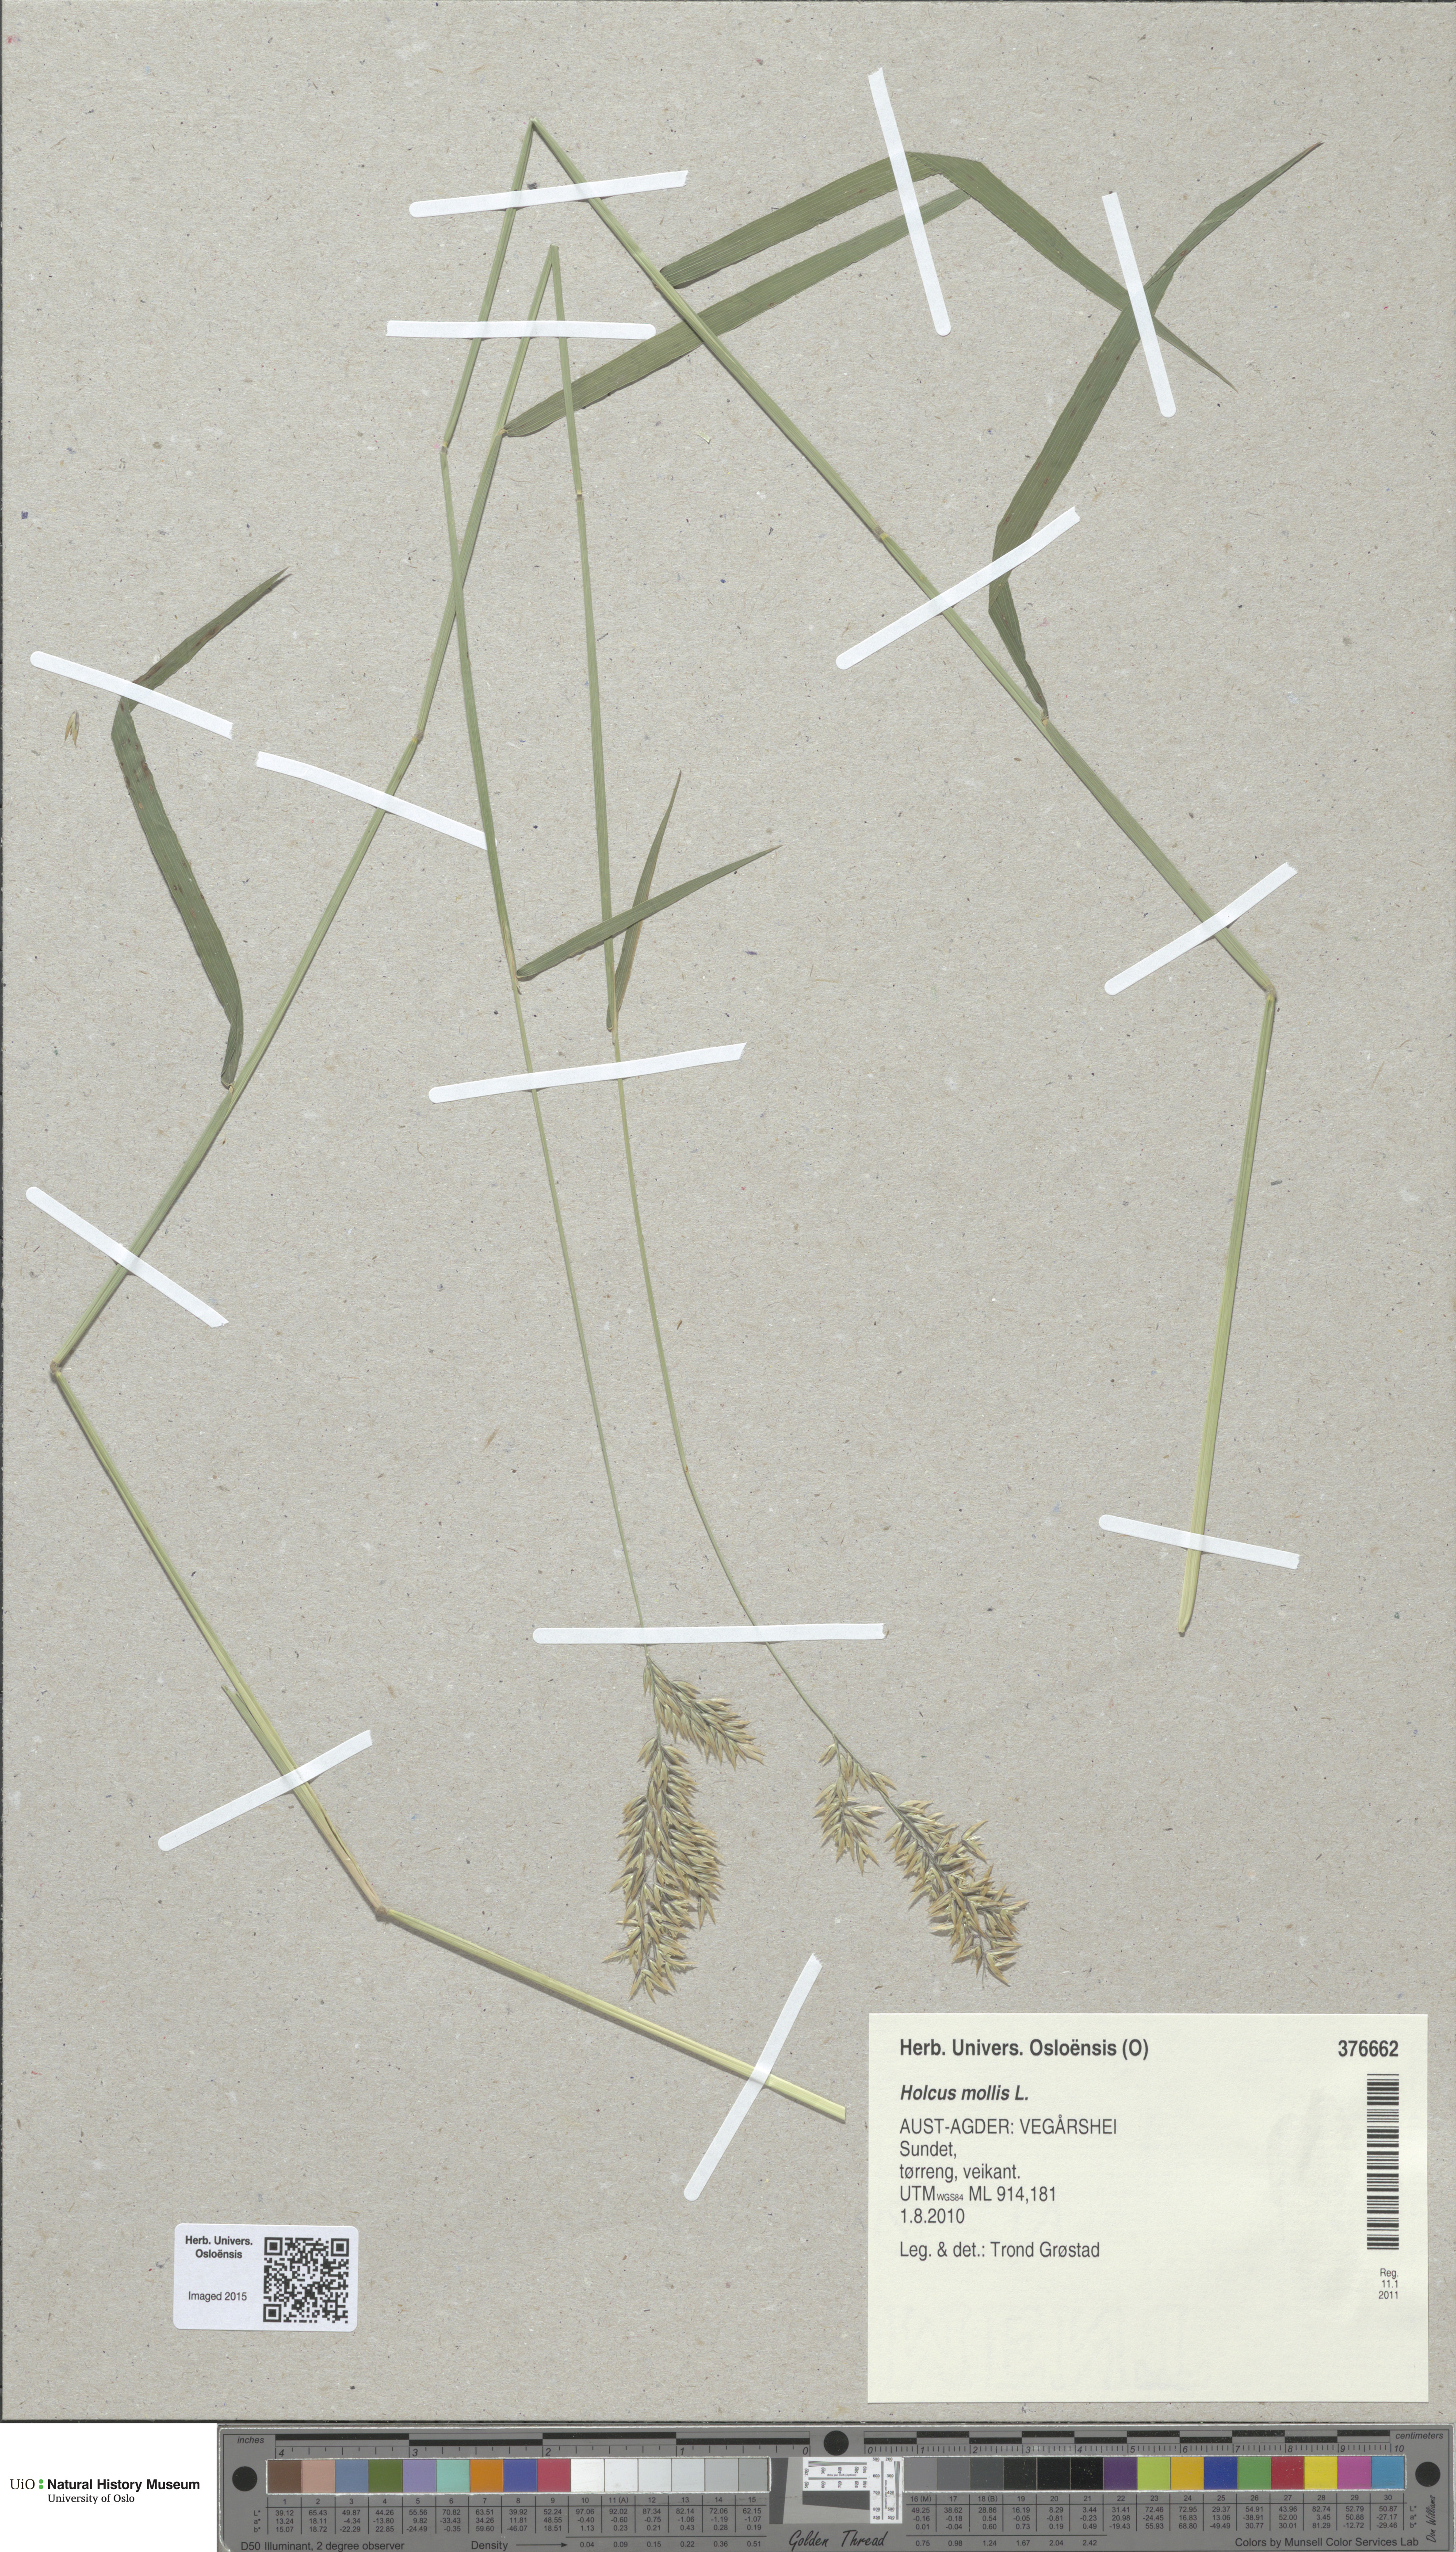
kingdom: Plantae
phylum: Tracheophyta
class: Liliopsida
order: Poales
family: Poaceae
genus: Holcus
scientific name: Holcus mollis
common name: Creeping velvetgrass
